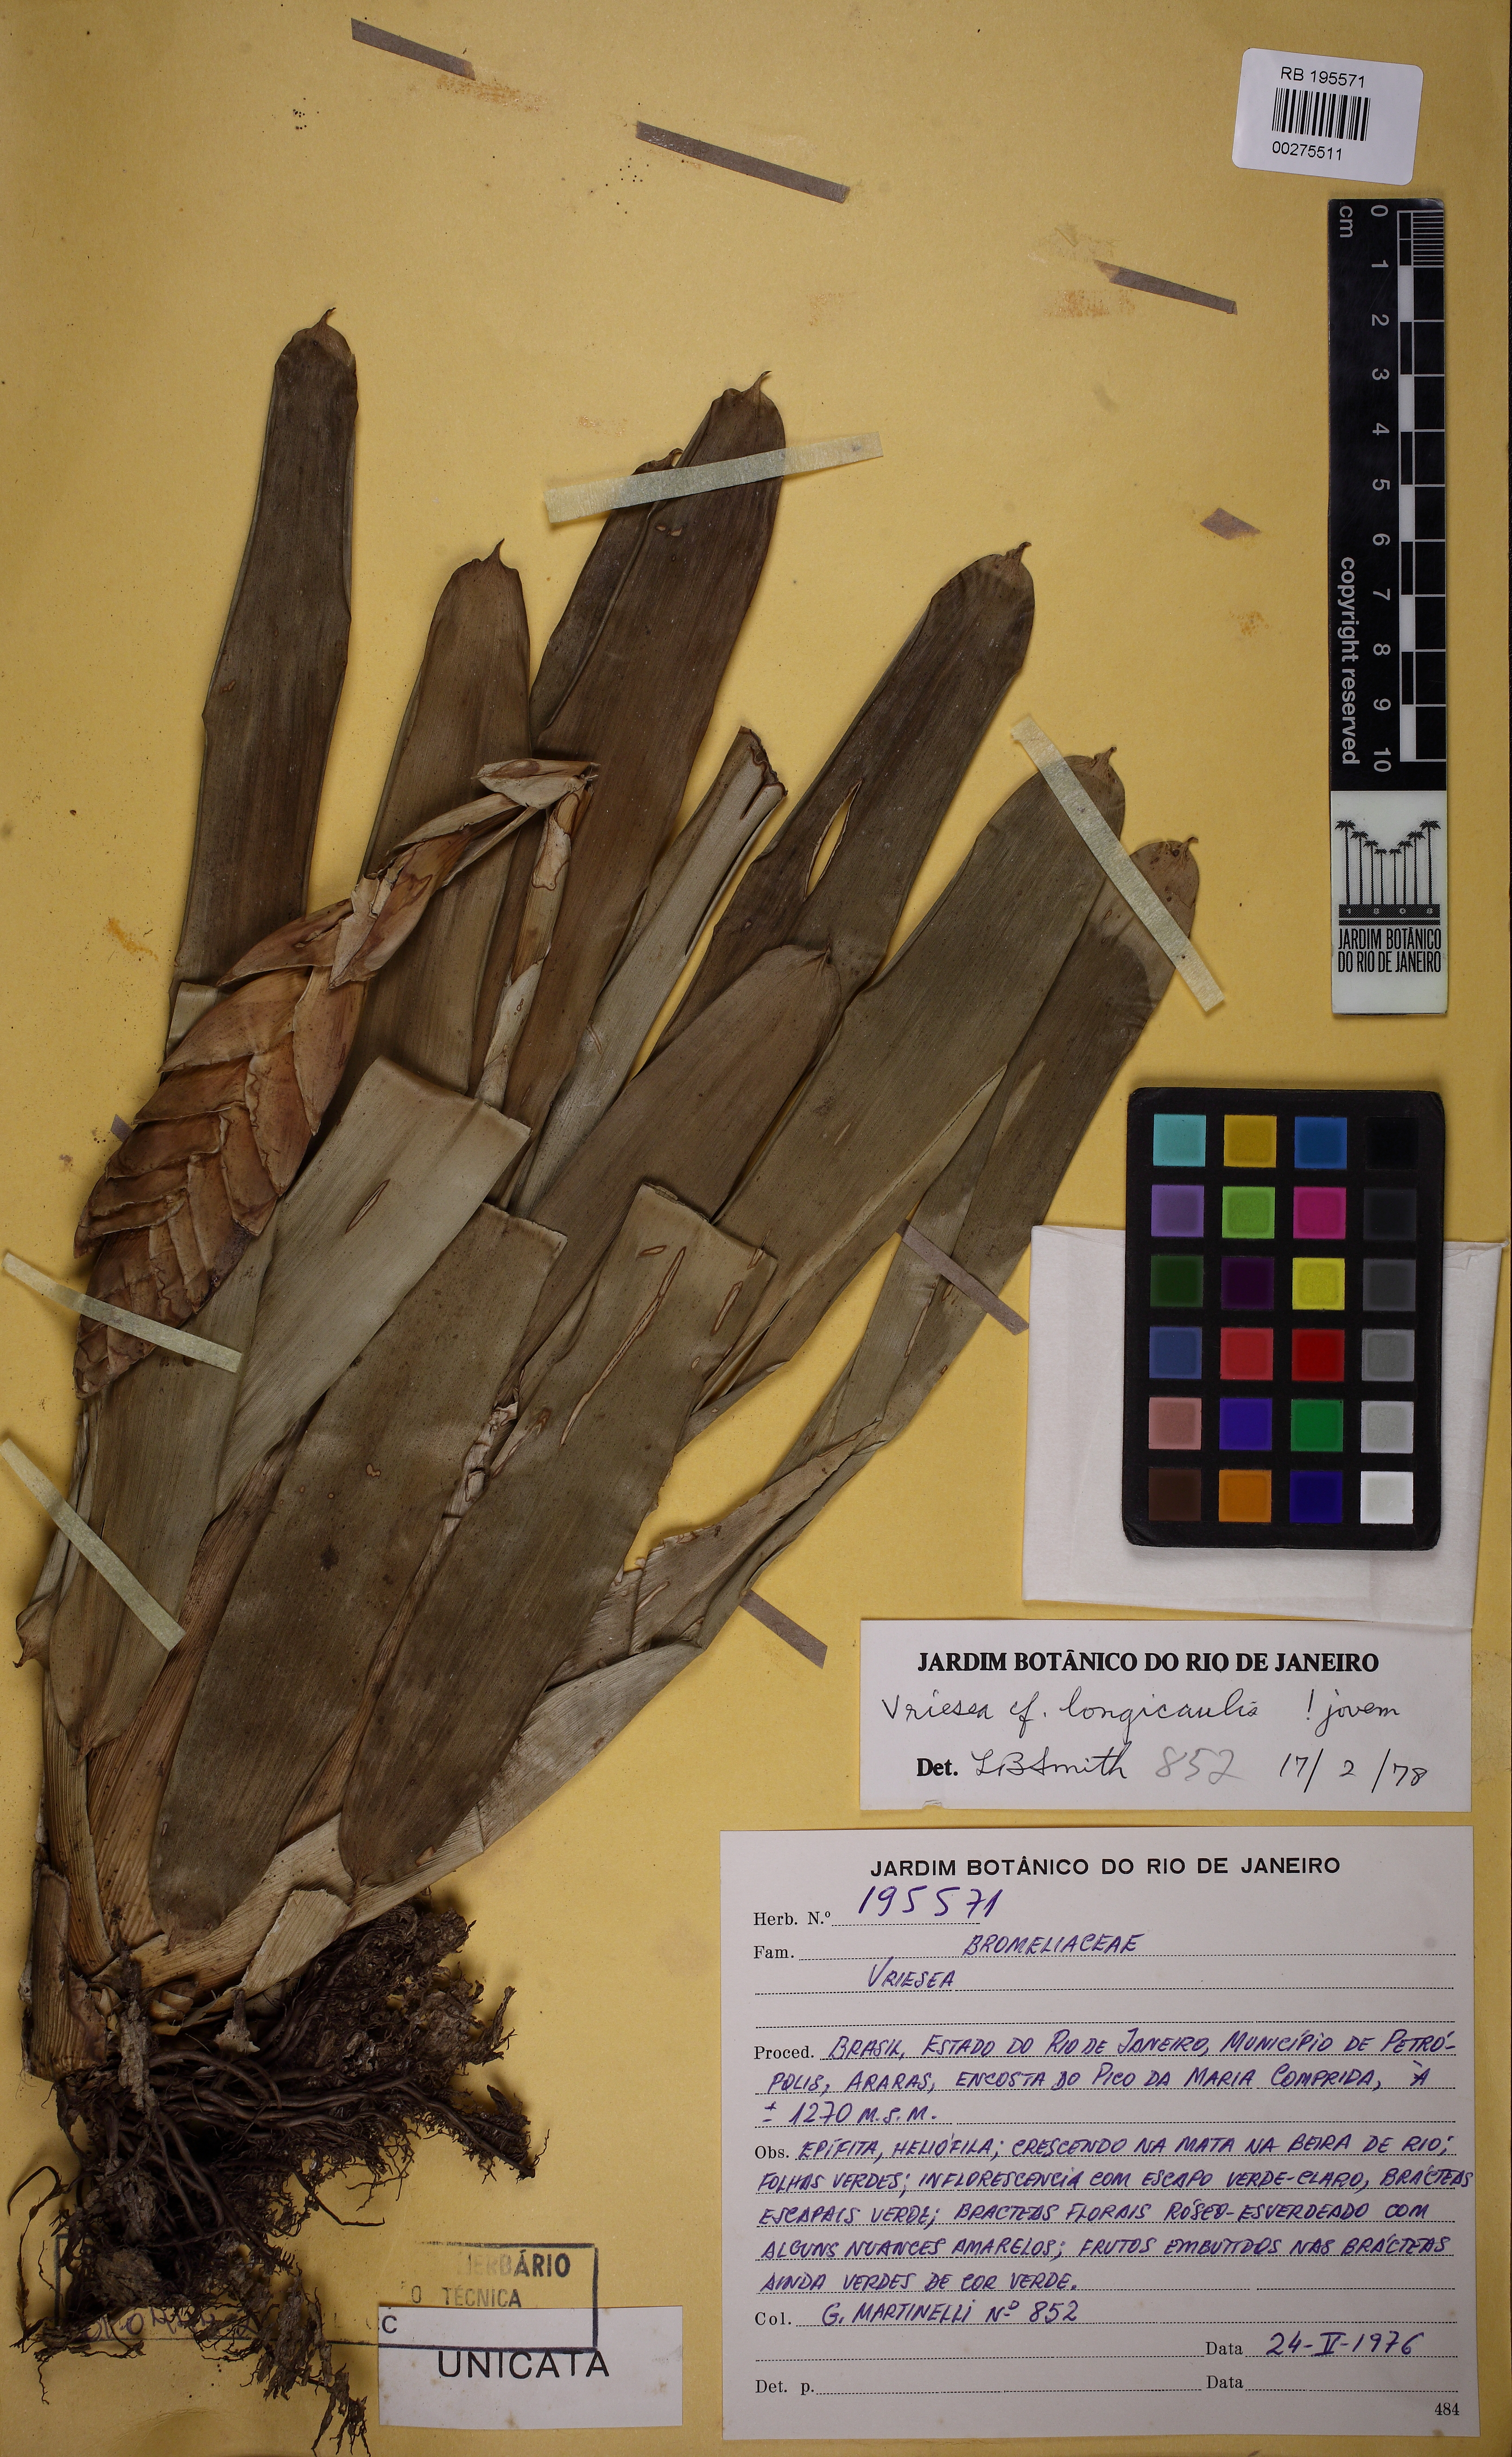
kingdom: Plantae
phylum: Tracheophyta
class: Liliopsida
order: Poales
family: Bromeliaceae
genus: Vriesea
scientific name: Vriesea longicaulis
